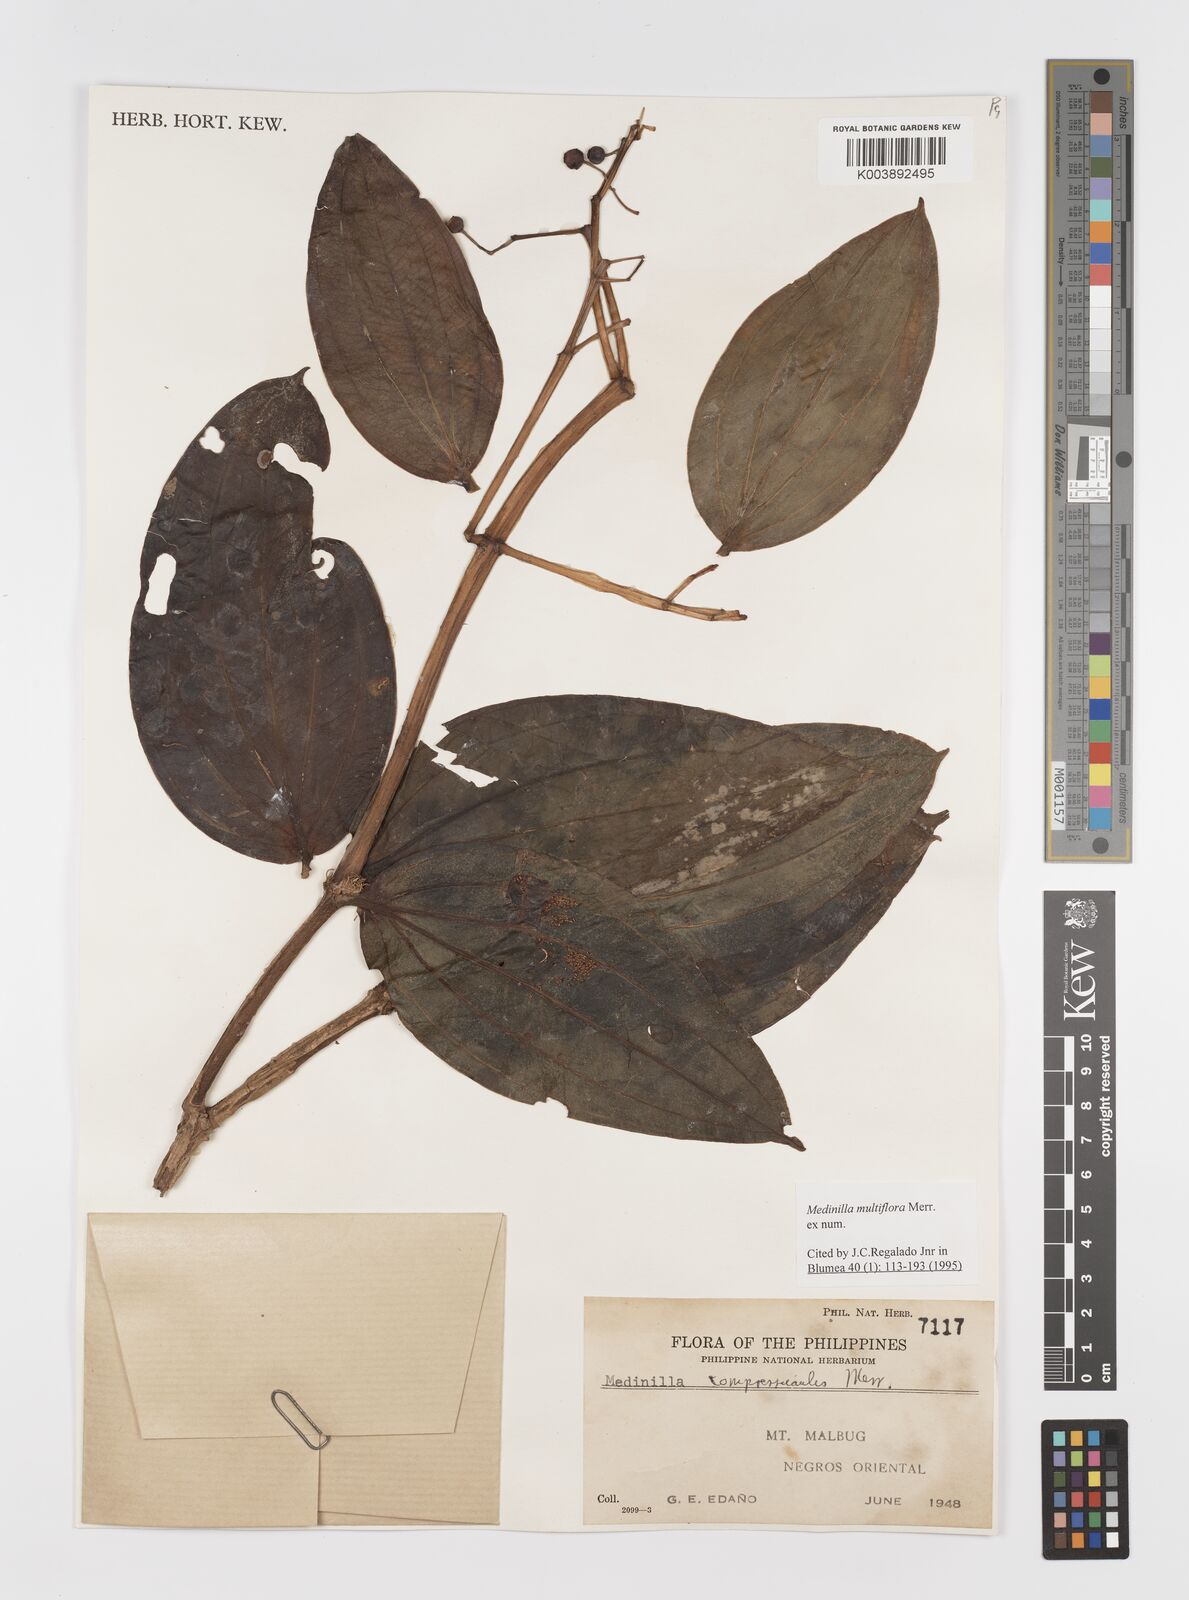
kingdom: Plantae
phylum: Tracheophyta
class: Magnoliopsida
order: Myrtales
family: Melastomataceae
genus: Medinilla
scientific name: Medinilla multiflora
